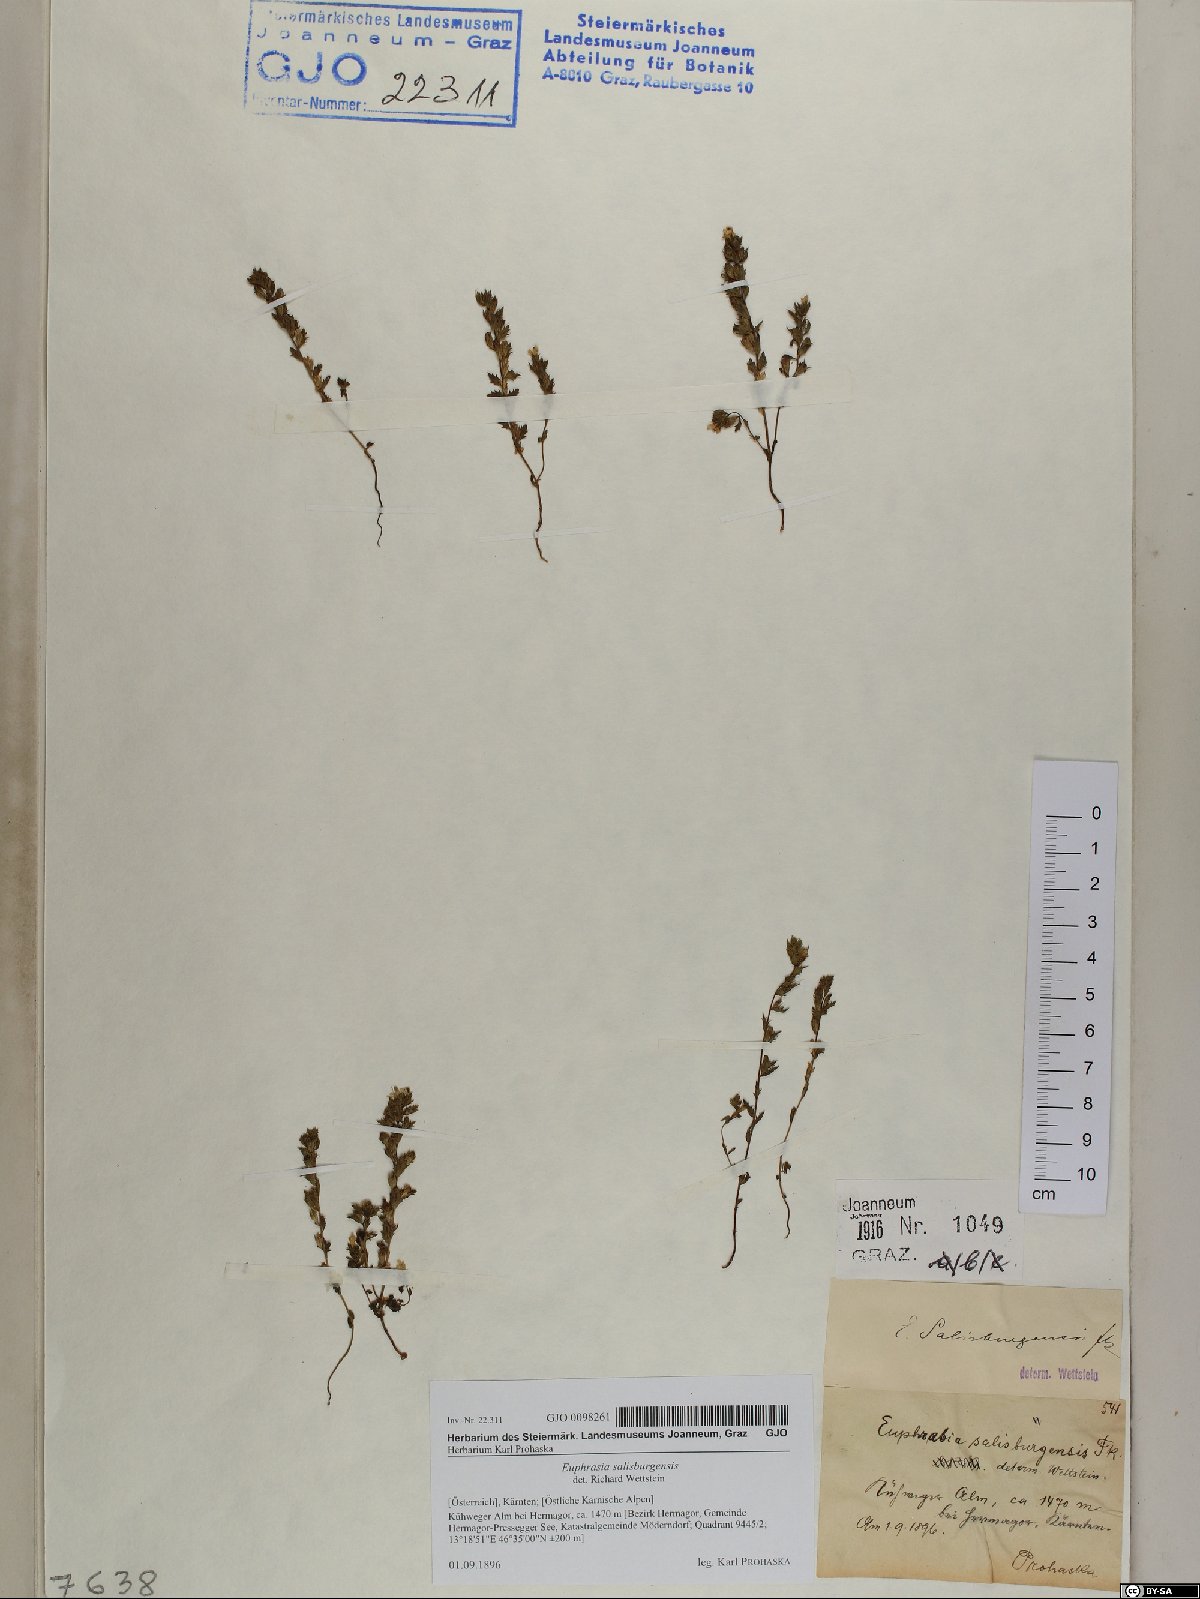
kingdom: Plantae
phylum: Tracheophyta
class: Magnoliopsida
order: Lamiales
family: Orobanchaceae
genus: Euphrasia
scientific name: Euphrasia salisburgensis
